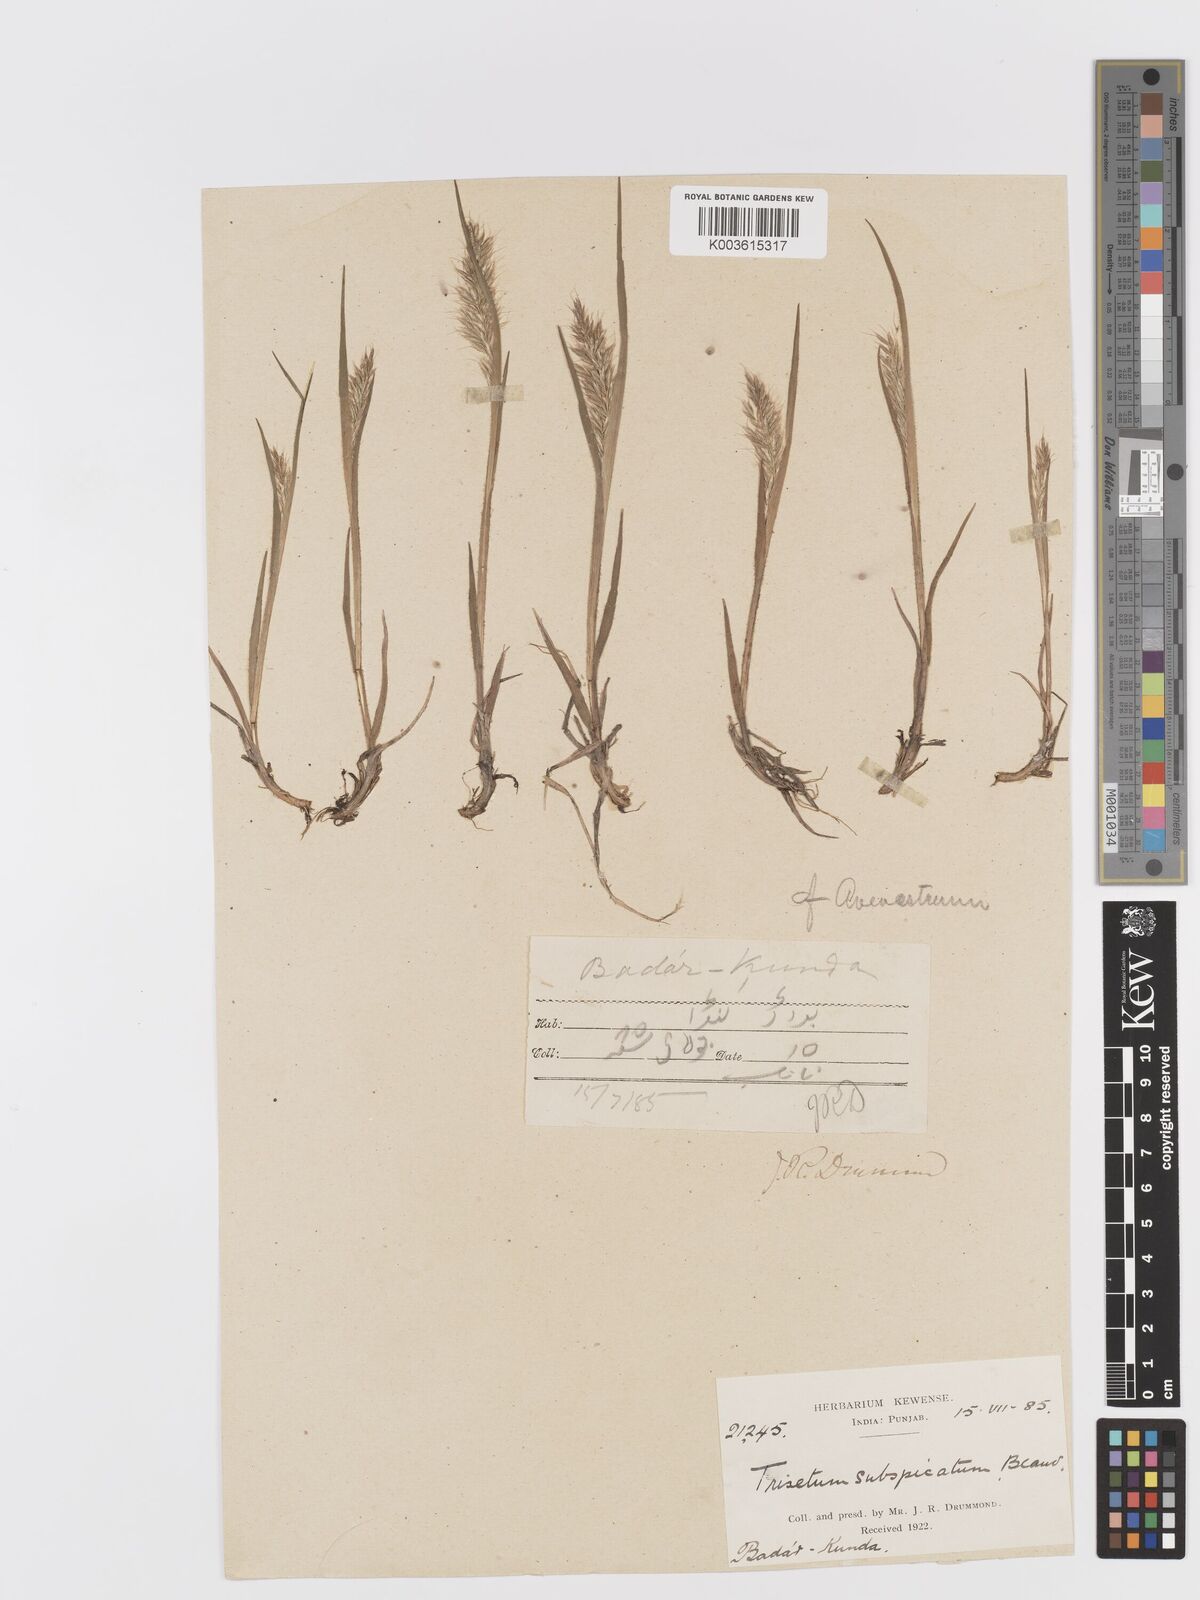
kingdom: Plantae
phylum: Tracheophyta
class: Liliopsida
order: Poales
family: Poaceae
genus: Koeleria
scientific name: Koeleria spicata
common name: Mountain trisetum
